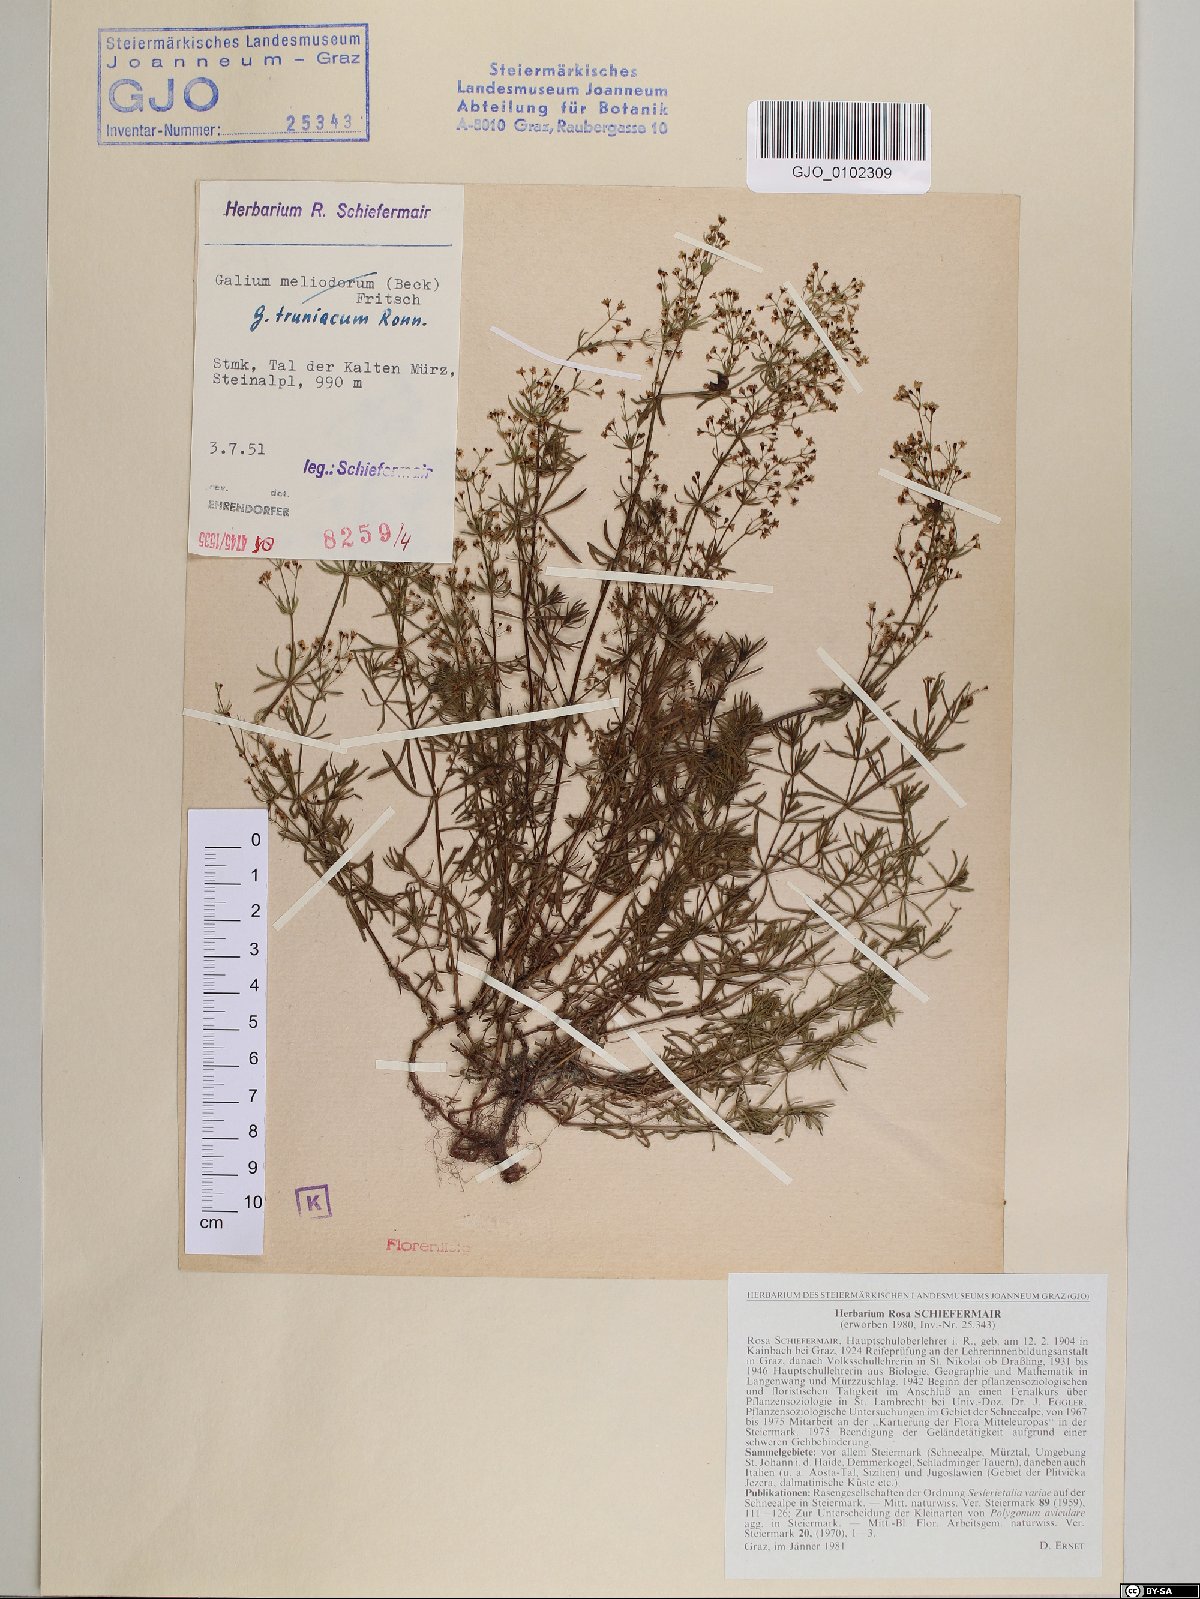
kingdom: Plantae
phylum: Tracheophyta
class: Magnoliopsida
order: Gentianales
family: Rubiaceae
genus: Galium
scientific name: Galium truniacum
